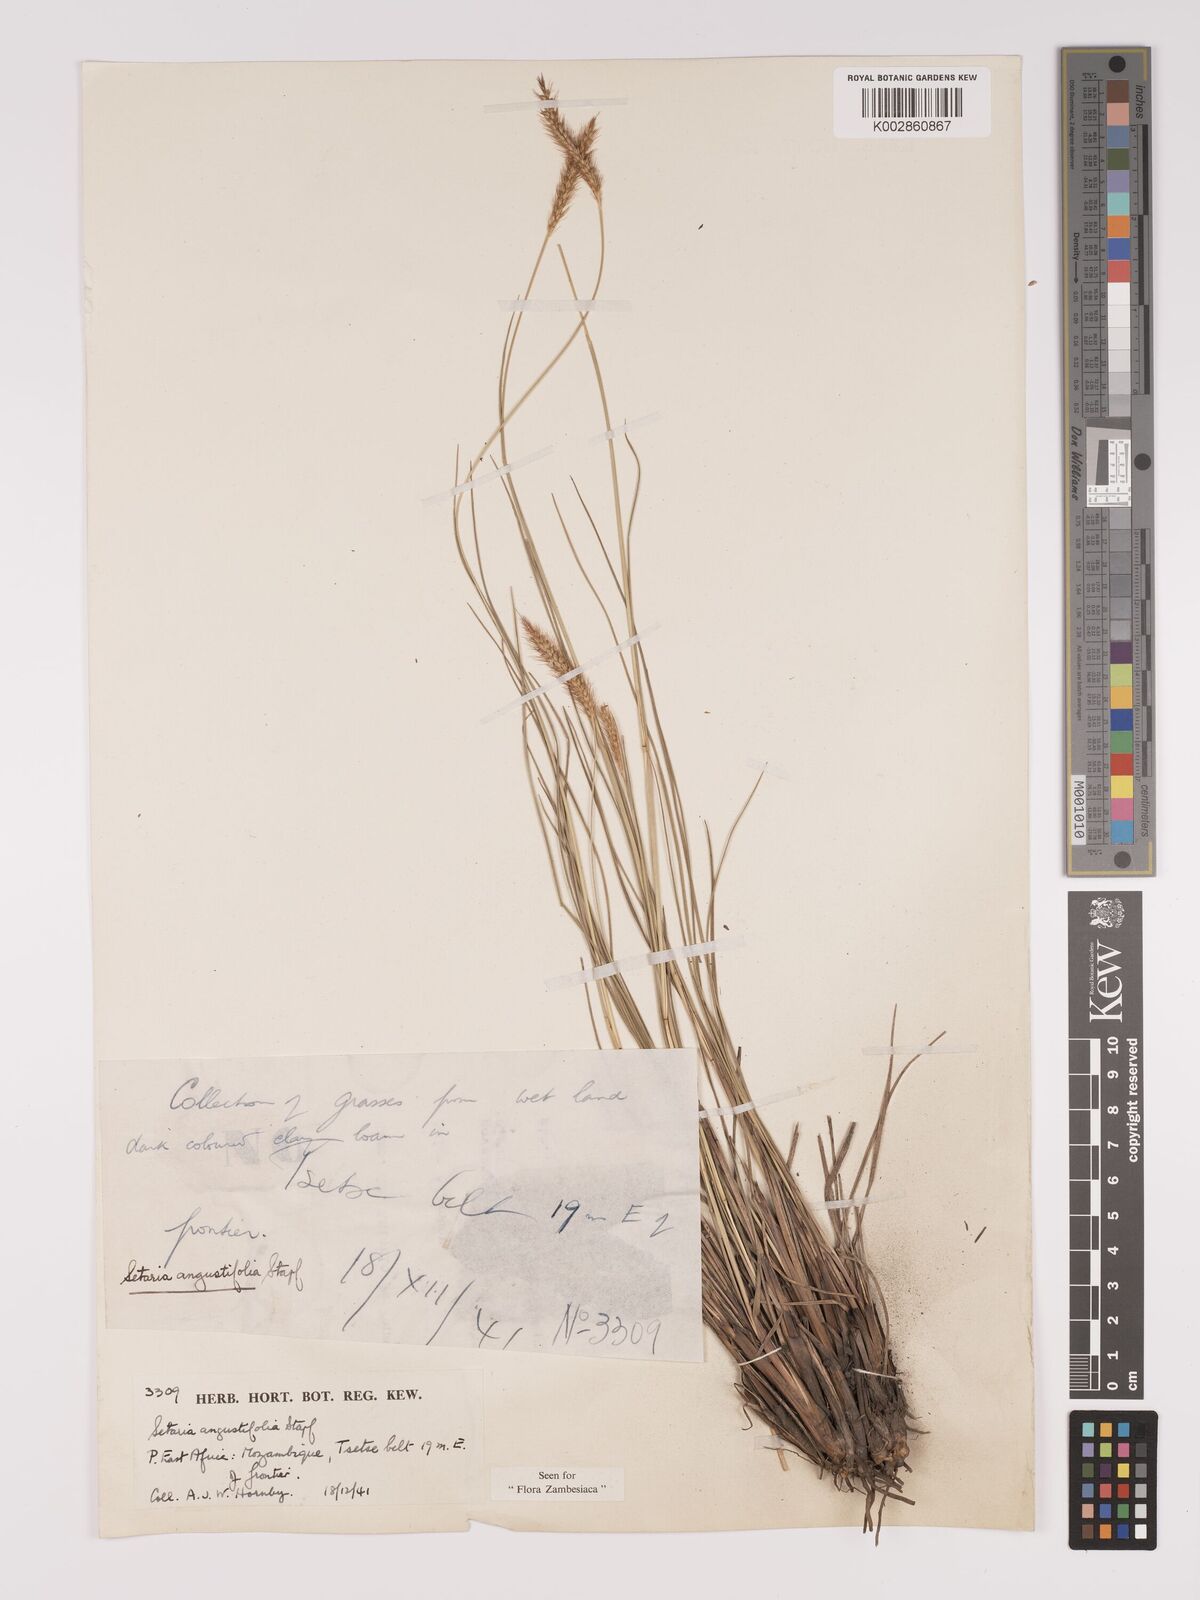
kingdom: Plantae
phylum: Tracheophyta
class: Liliopsida
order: Poales
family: Poaceae
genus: Setaria
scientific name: Setaria sphacelata
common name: African bristlegrass
